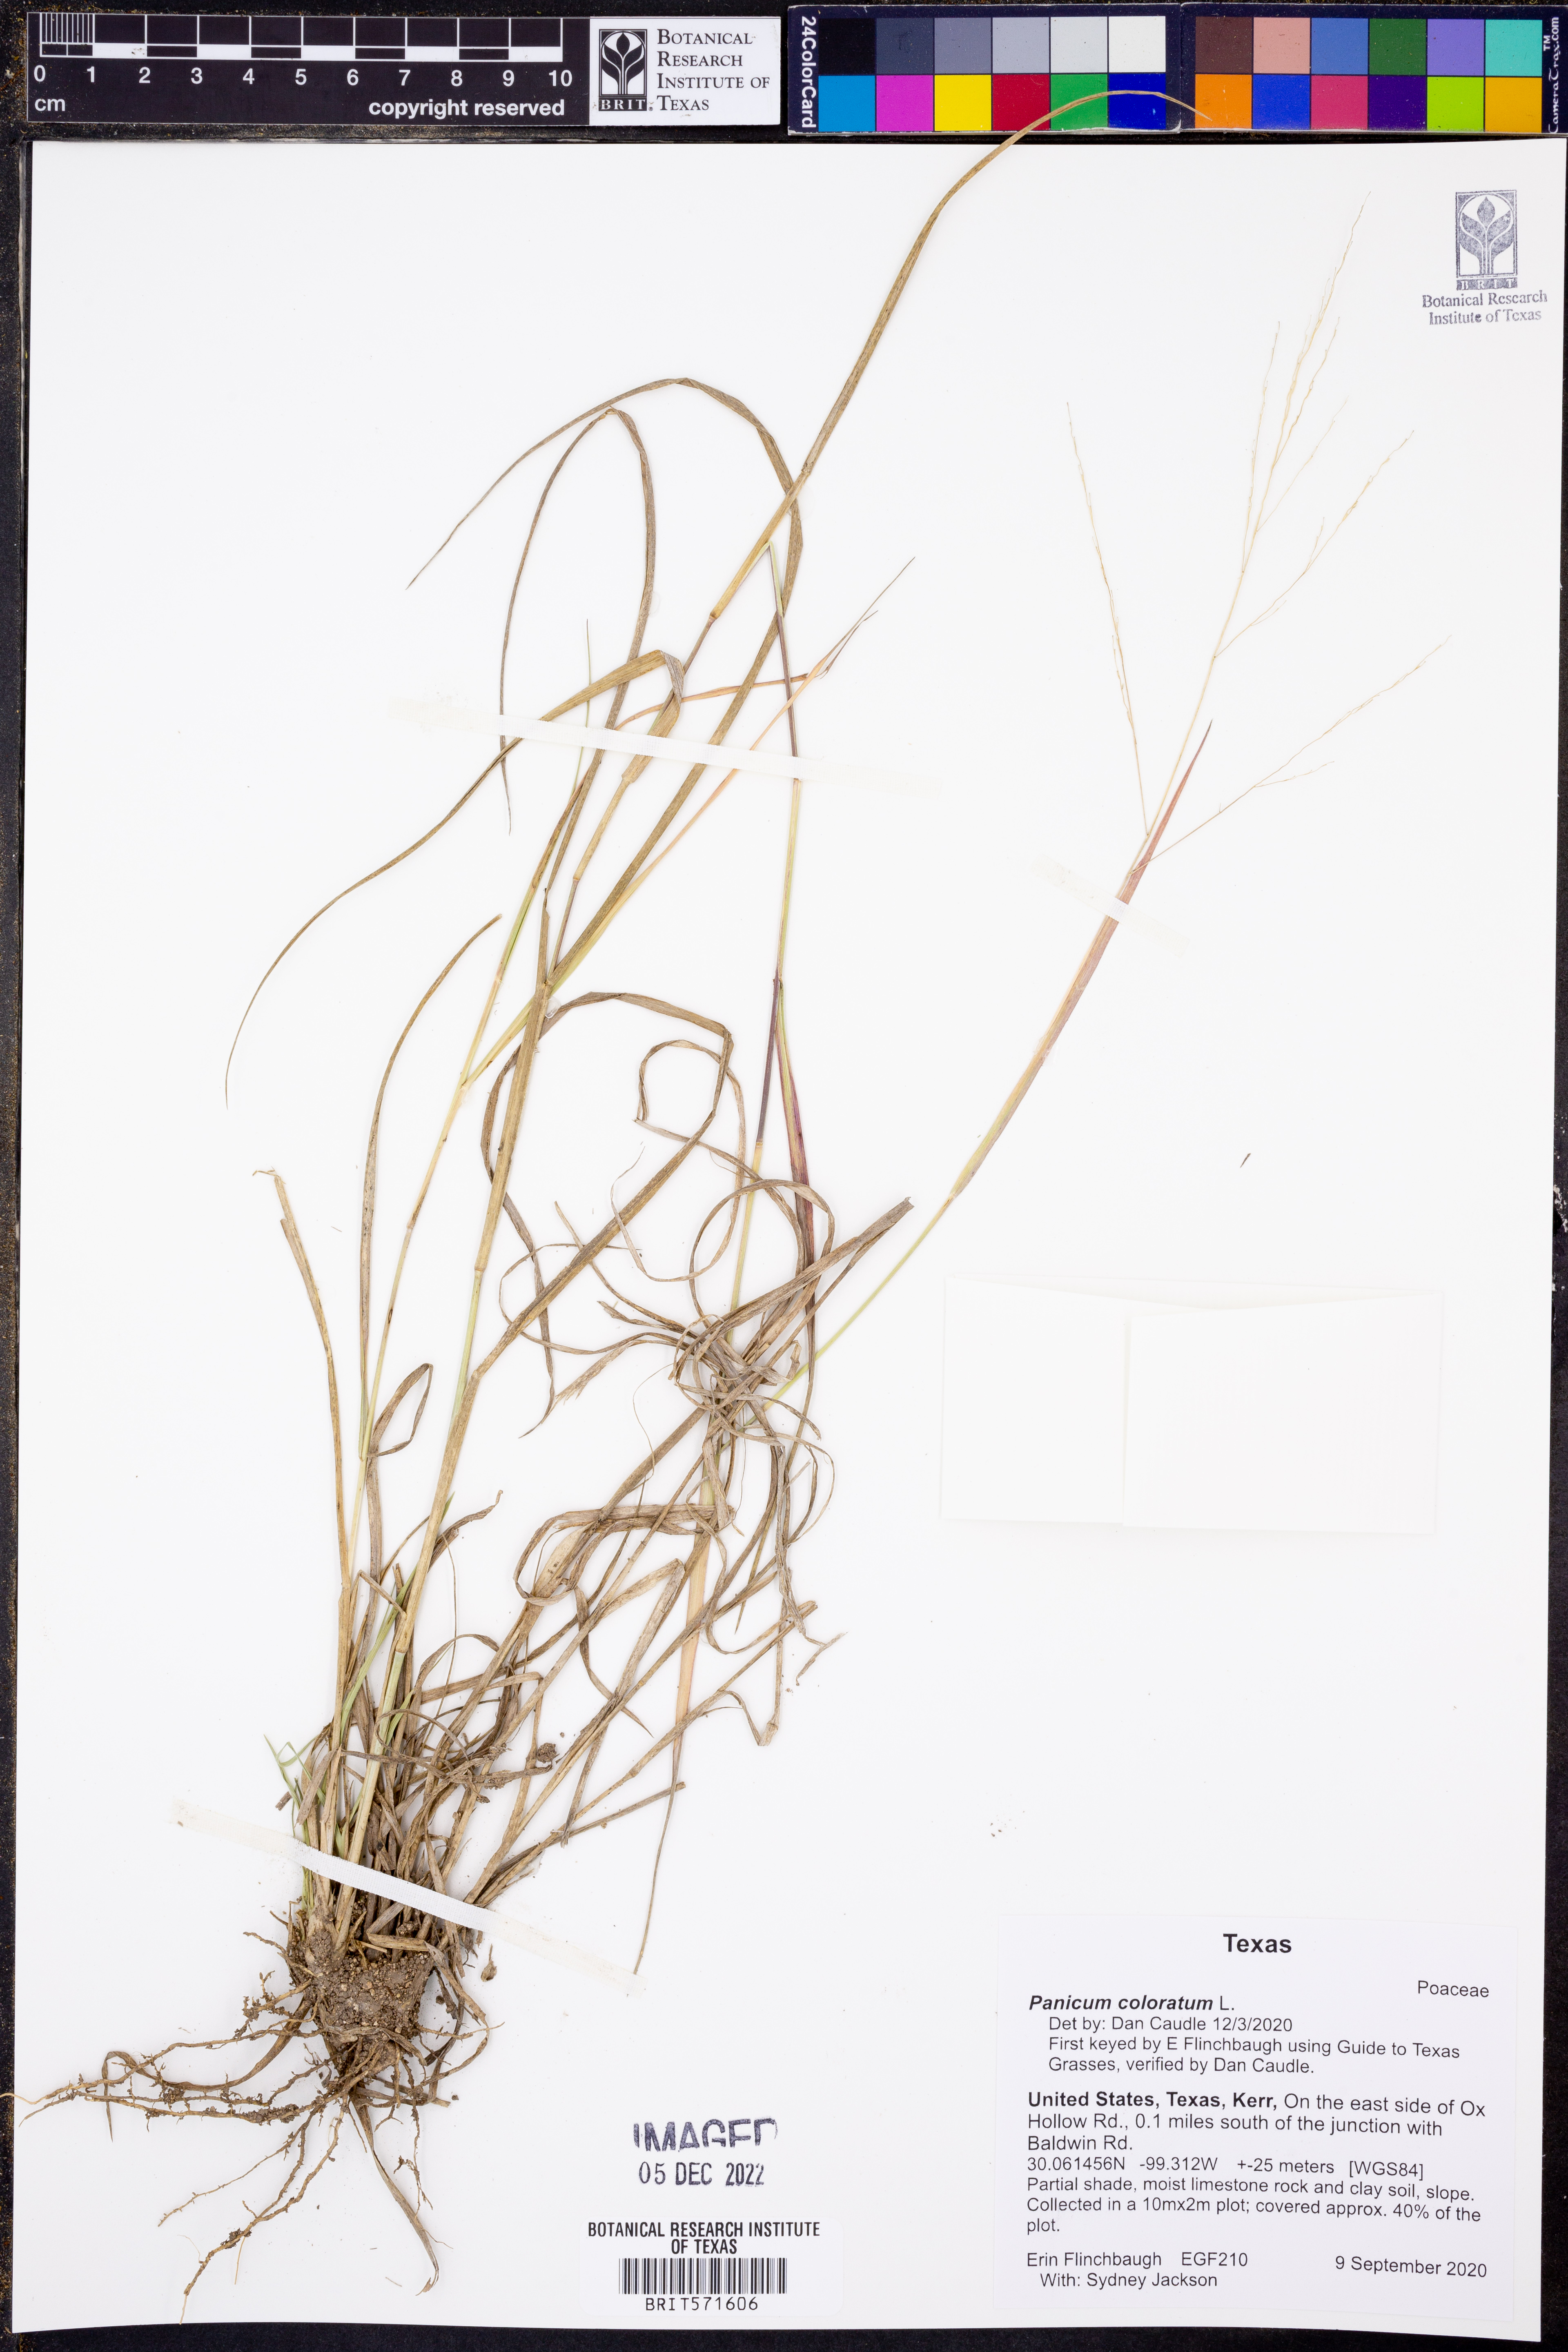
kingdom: Plantae
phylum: Tracheophyta
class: Liliopsida
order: Poales
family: Poaceae
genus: Panicum
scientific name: Panicum coloratum
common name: Kleingrass
